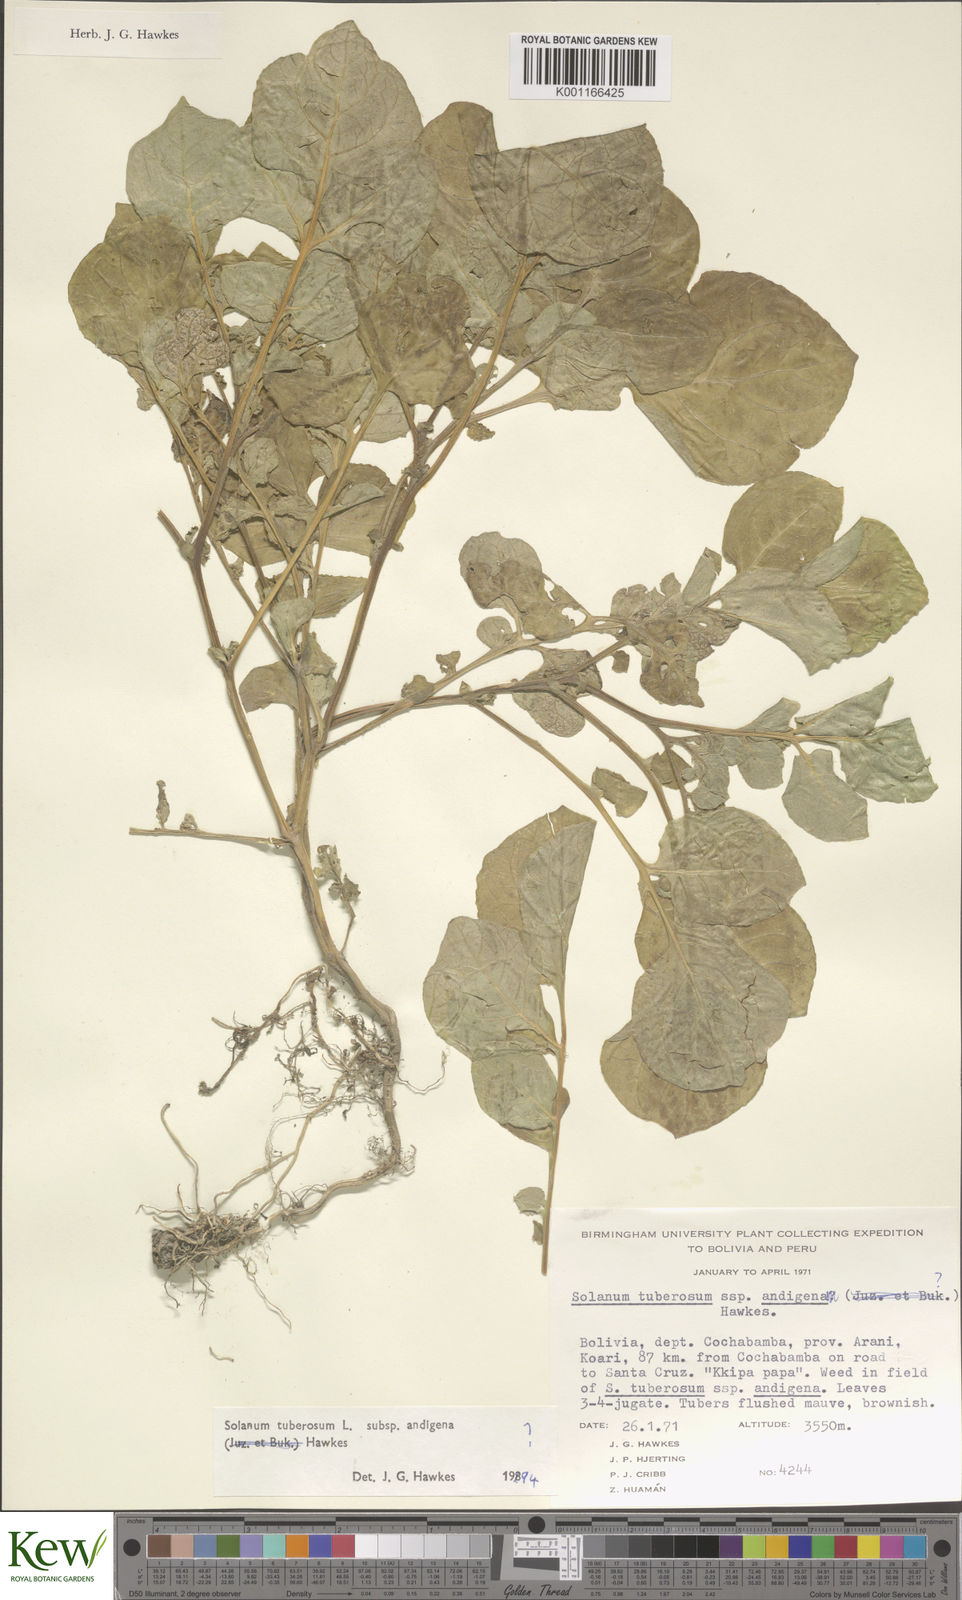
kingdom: Plantae
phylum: Tracheophyta
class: Magnoliopsida
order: Solanales
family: Solanaceae
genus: Solanum
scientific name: Solanum tuberosum
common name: Potato
